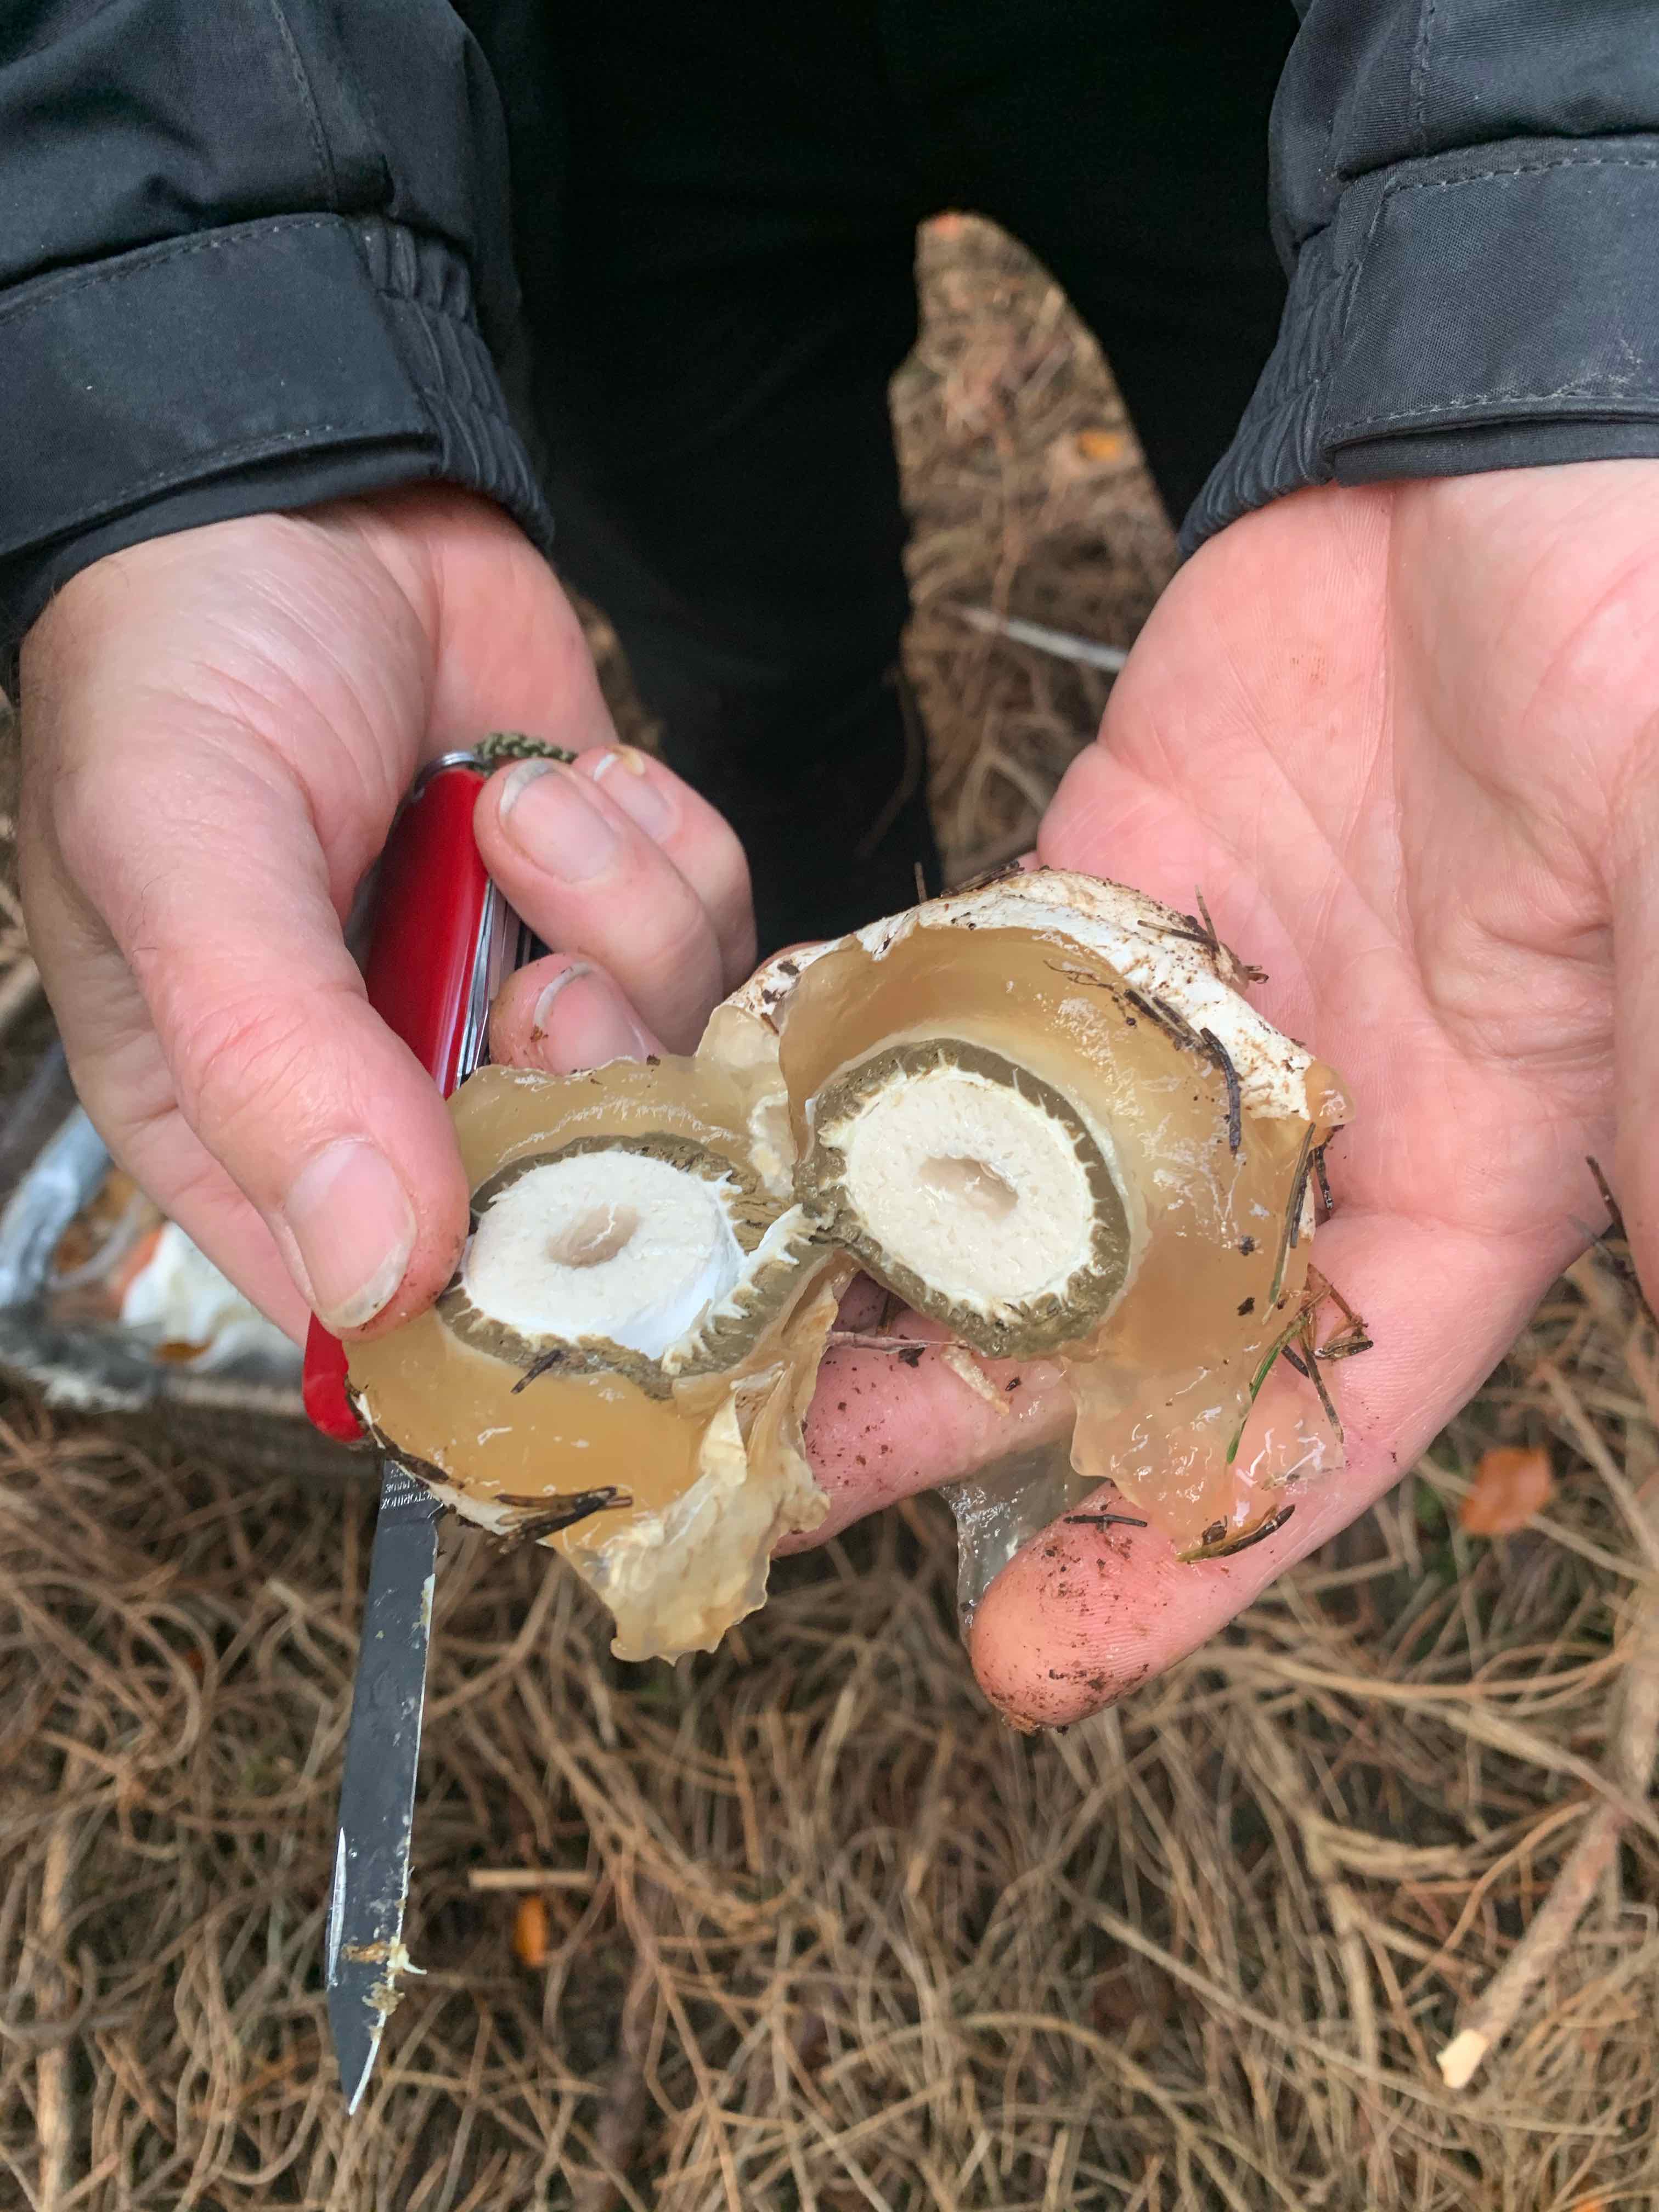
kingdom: Fungi
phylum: Basidiomycota
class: Agaricomycetes
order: Phallales
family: Phallaceae
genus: Phallus
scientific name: Phallus impudicus
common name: almindelig stinksvamp
